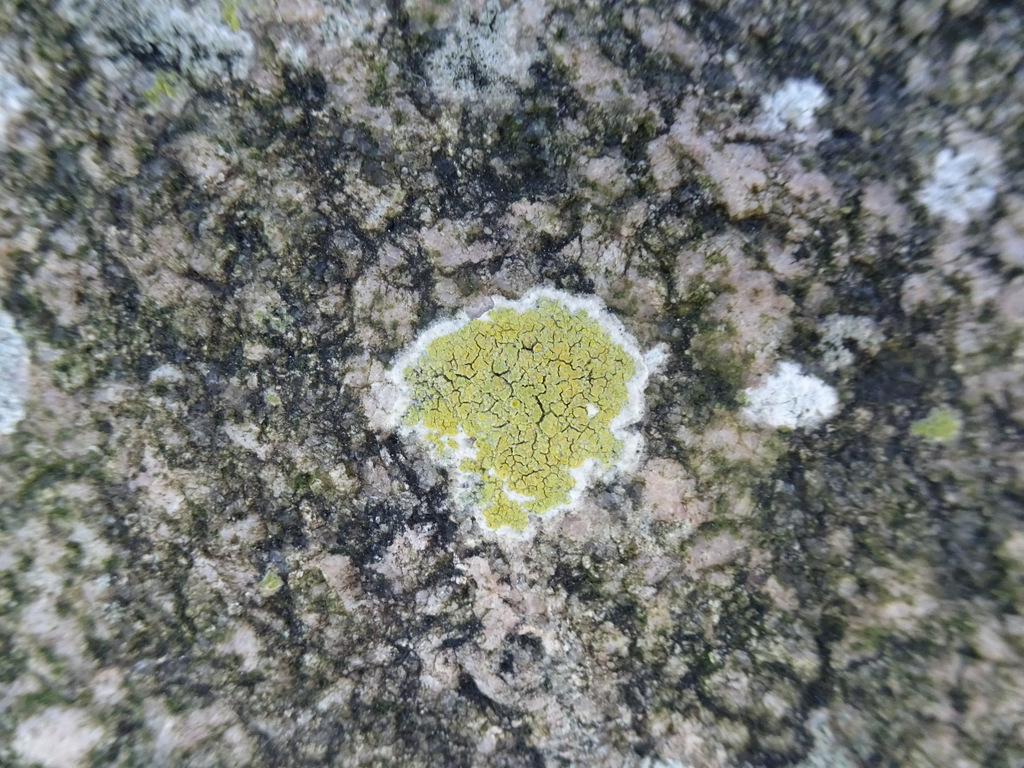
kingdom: Plantae
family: Lecanoromycetidae
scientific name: Lecanoromycetidae
